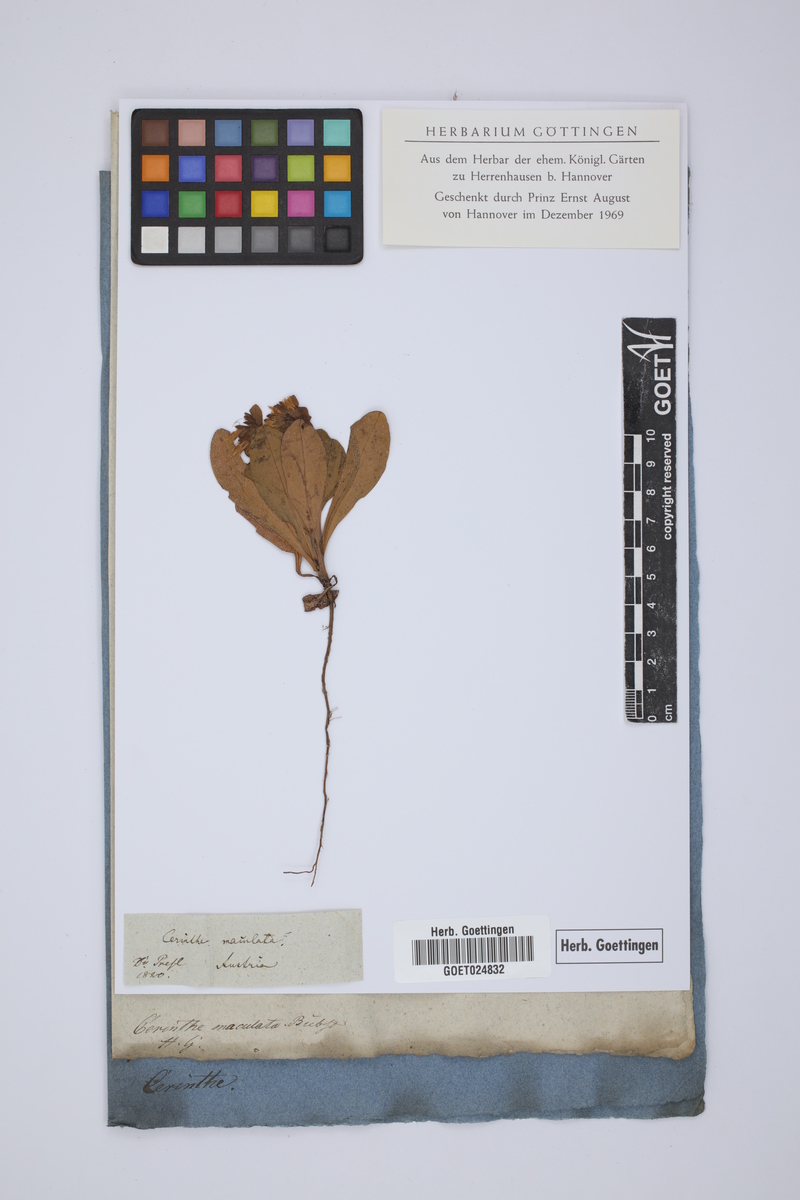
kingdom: Plantae
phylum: Tracheophyta
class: Magnoliopsida
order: Boraginales
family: Boraginaceae
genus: Cerinthe
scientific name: Cerinthe minor
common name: Lesser honeywort
